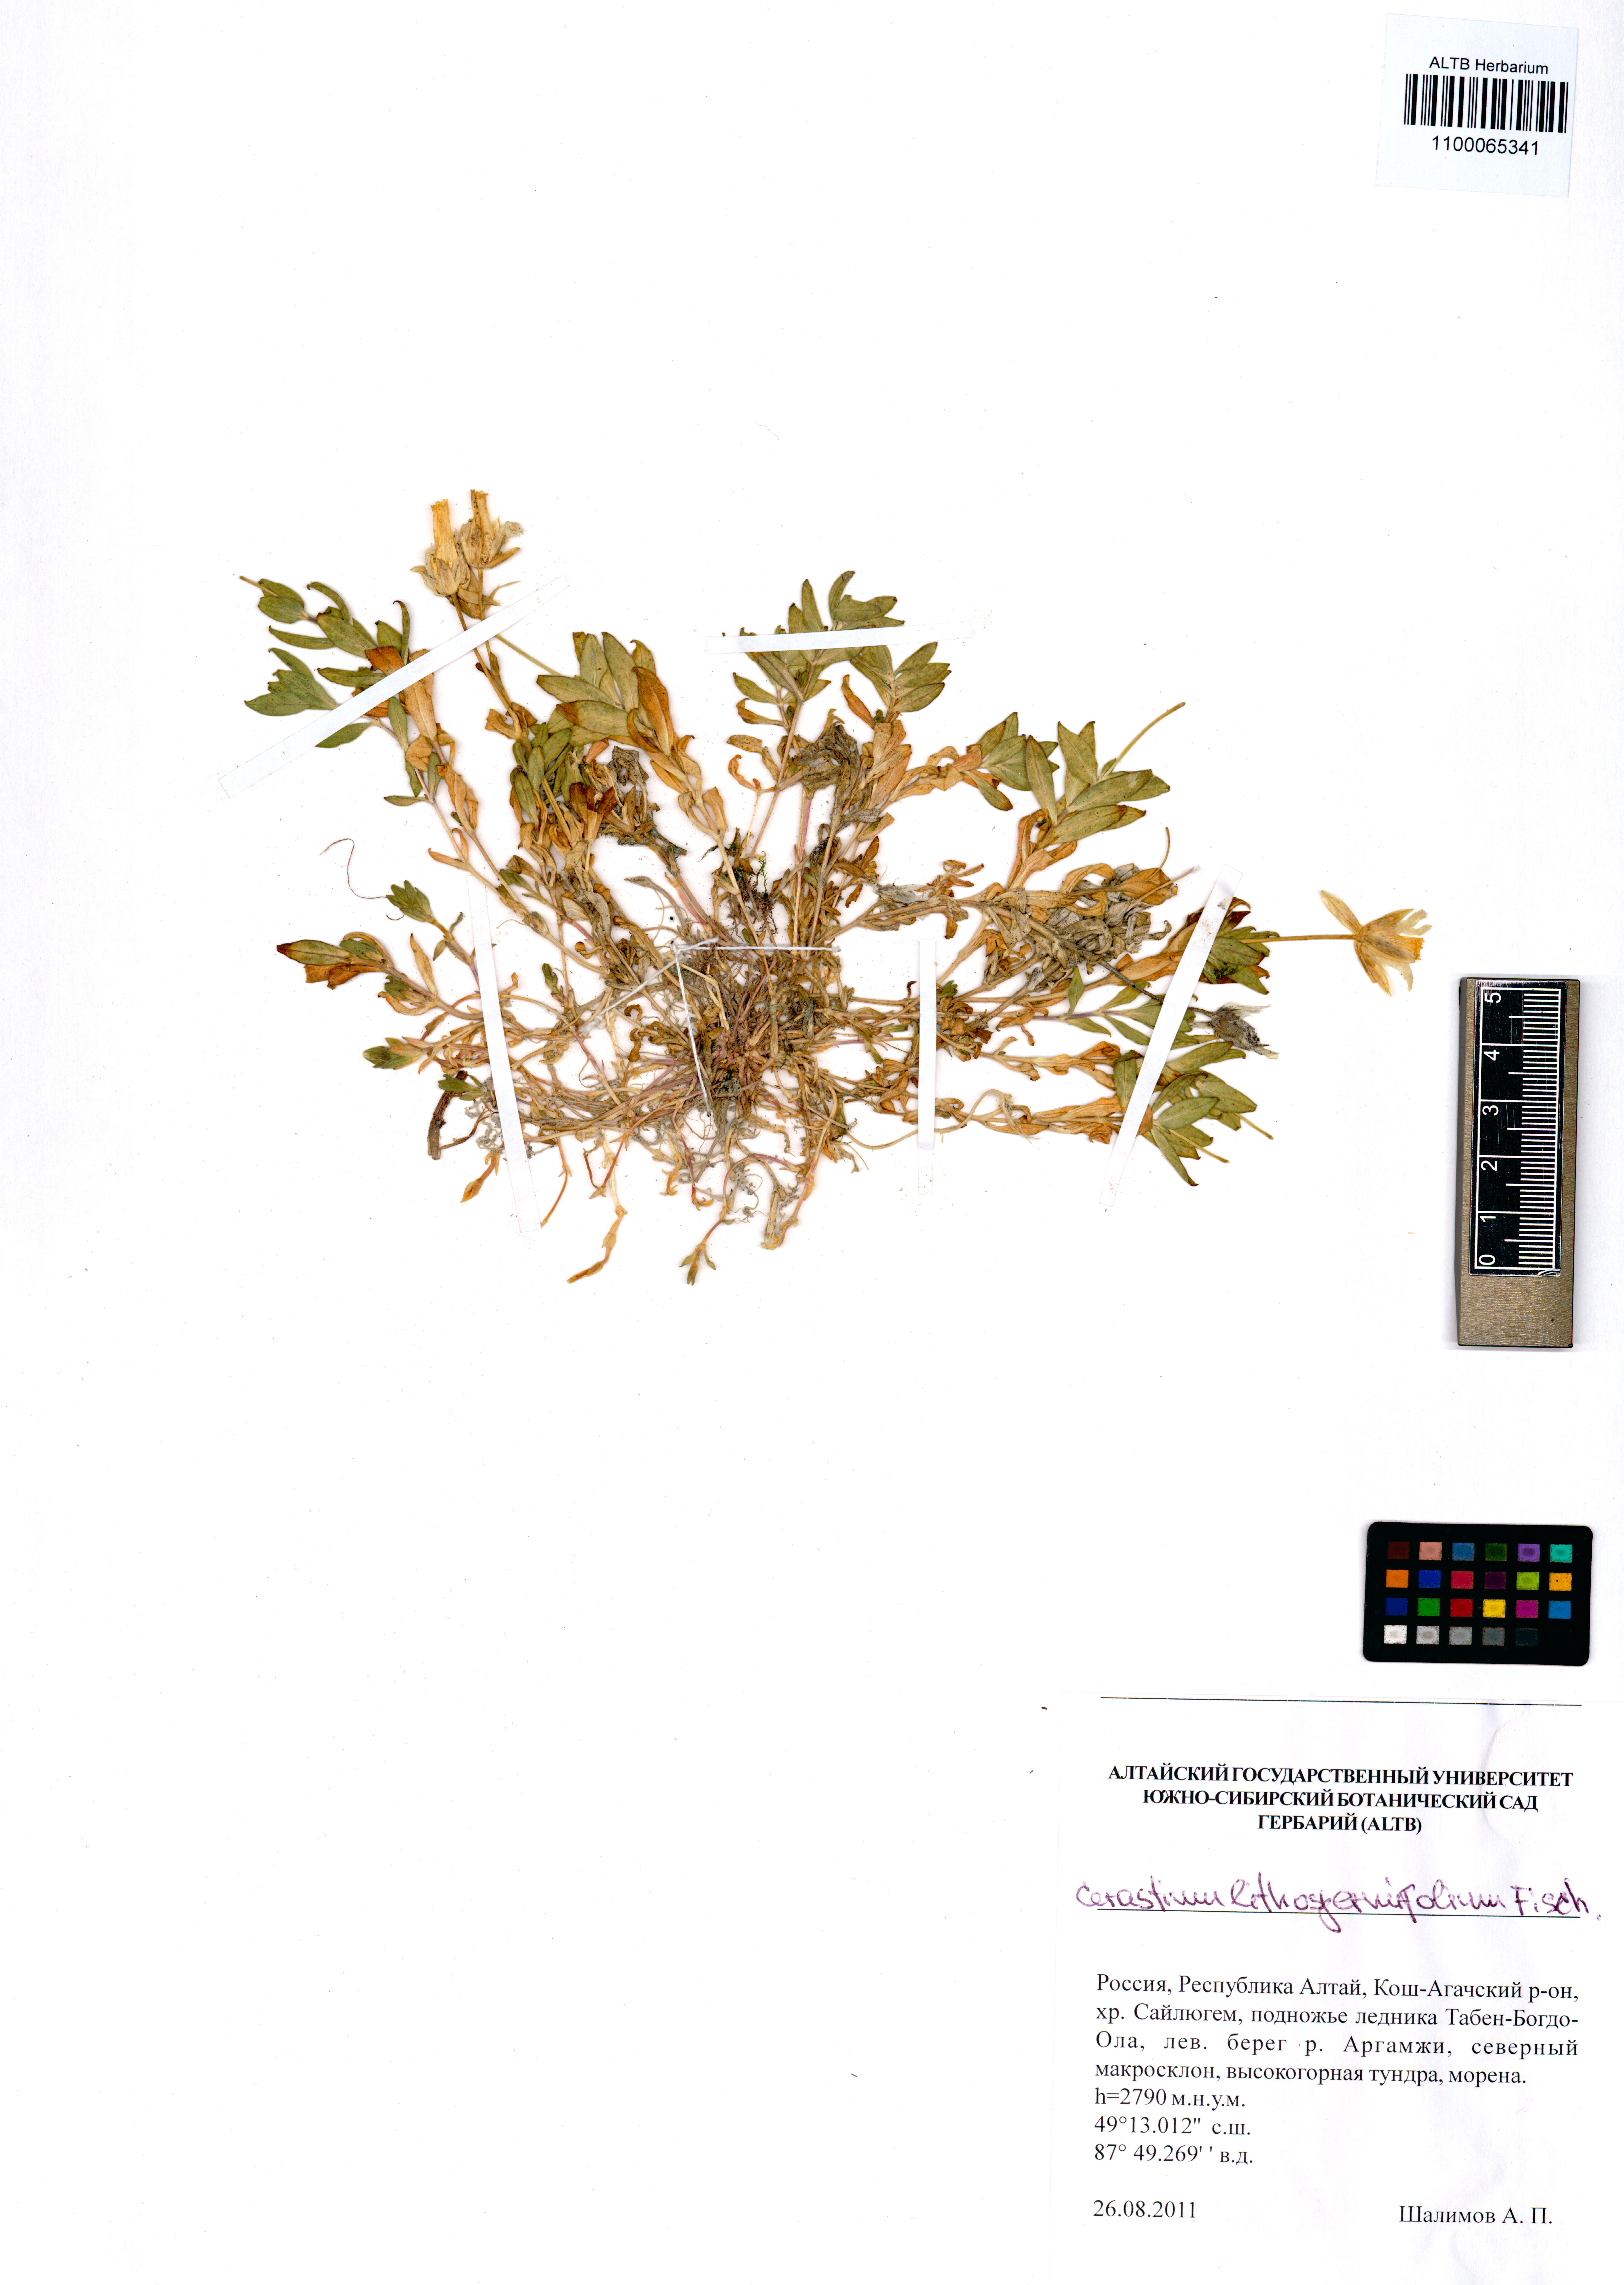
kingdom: Plantae
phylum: Tracheophyta
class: Magnoliopsida
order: Caryophyllales
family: Caryophyllaceae
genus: Cerastium
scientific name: Cerastium lithospermifolium
